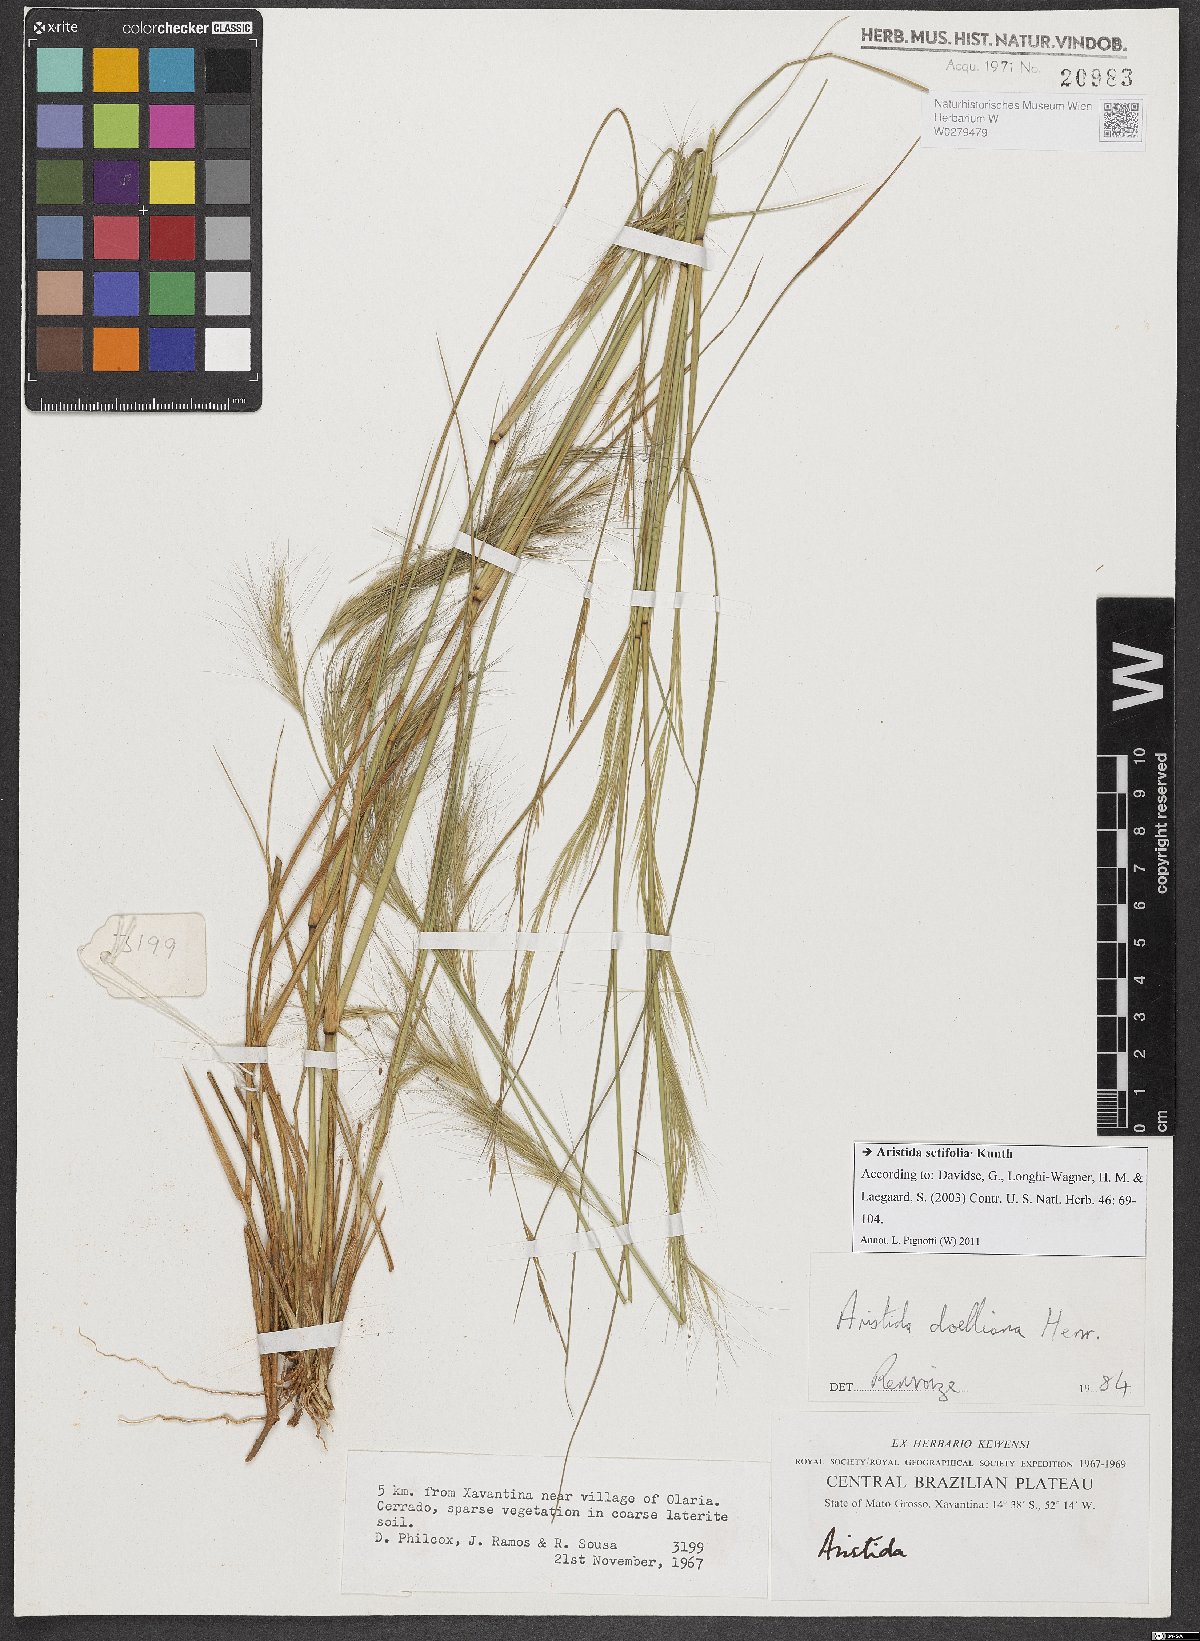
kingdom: Plantae
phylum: Tracheophyta
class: Liliopsida
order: Poales
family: Poaceae
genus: Aristida
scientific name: Aristida setifolia
